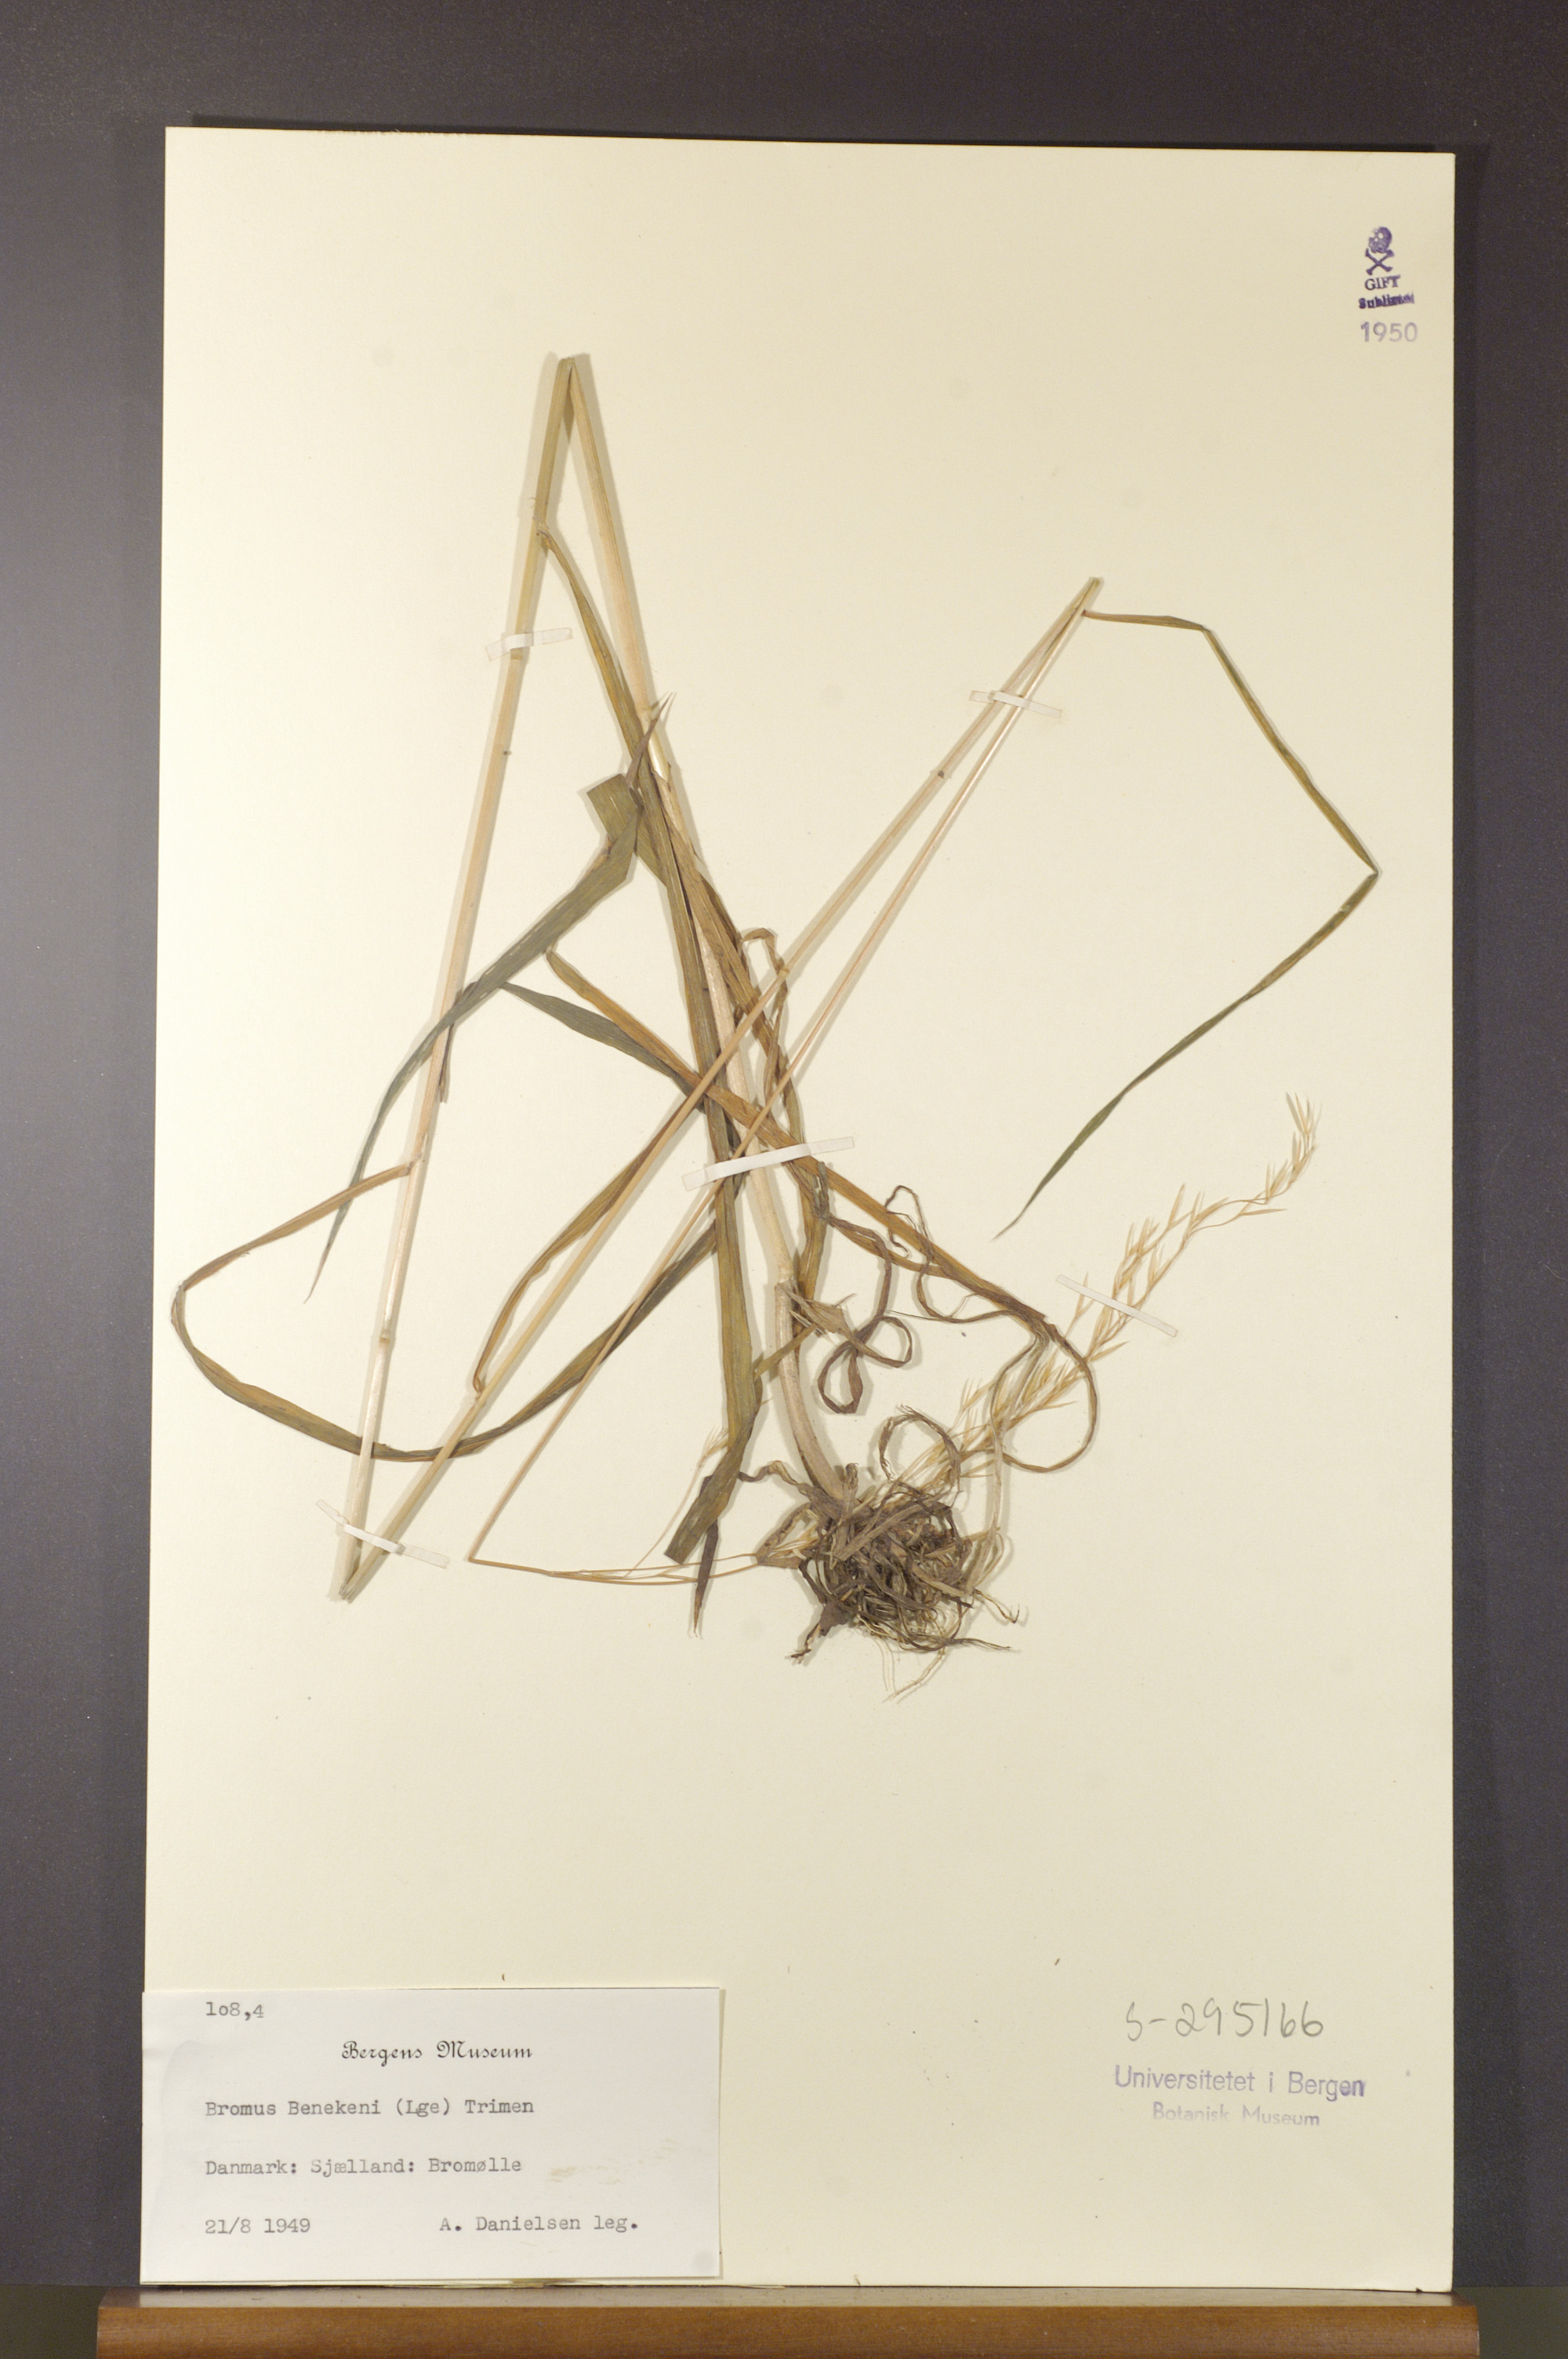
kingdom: Plantae
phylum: Tracheophyta
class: Liliopsida
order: Poales
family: Poaceae
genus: Bromus
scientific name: Bromus benekenii
